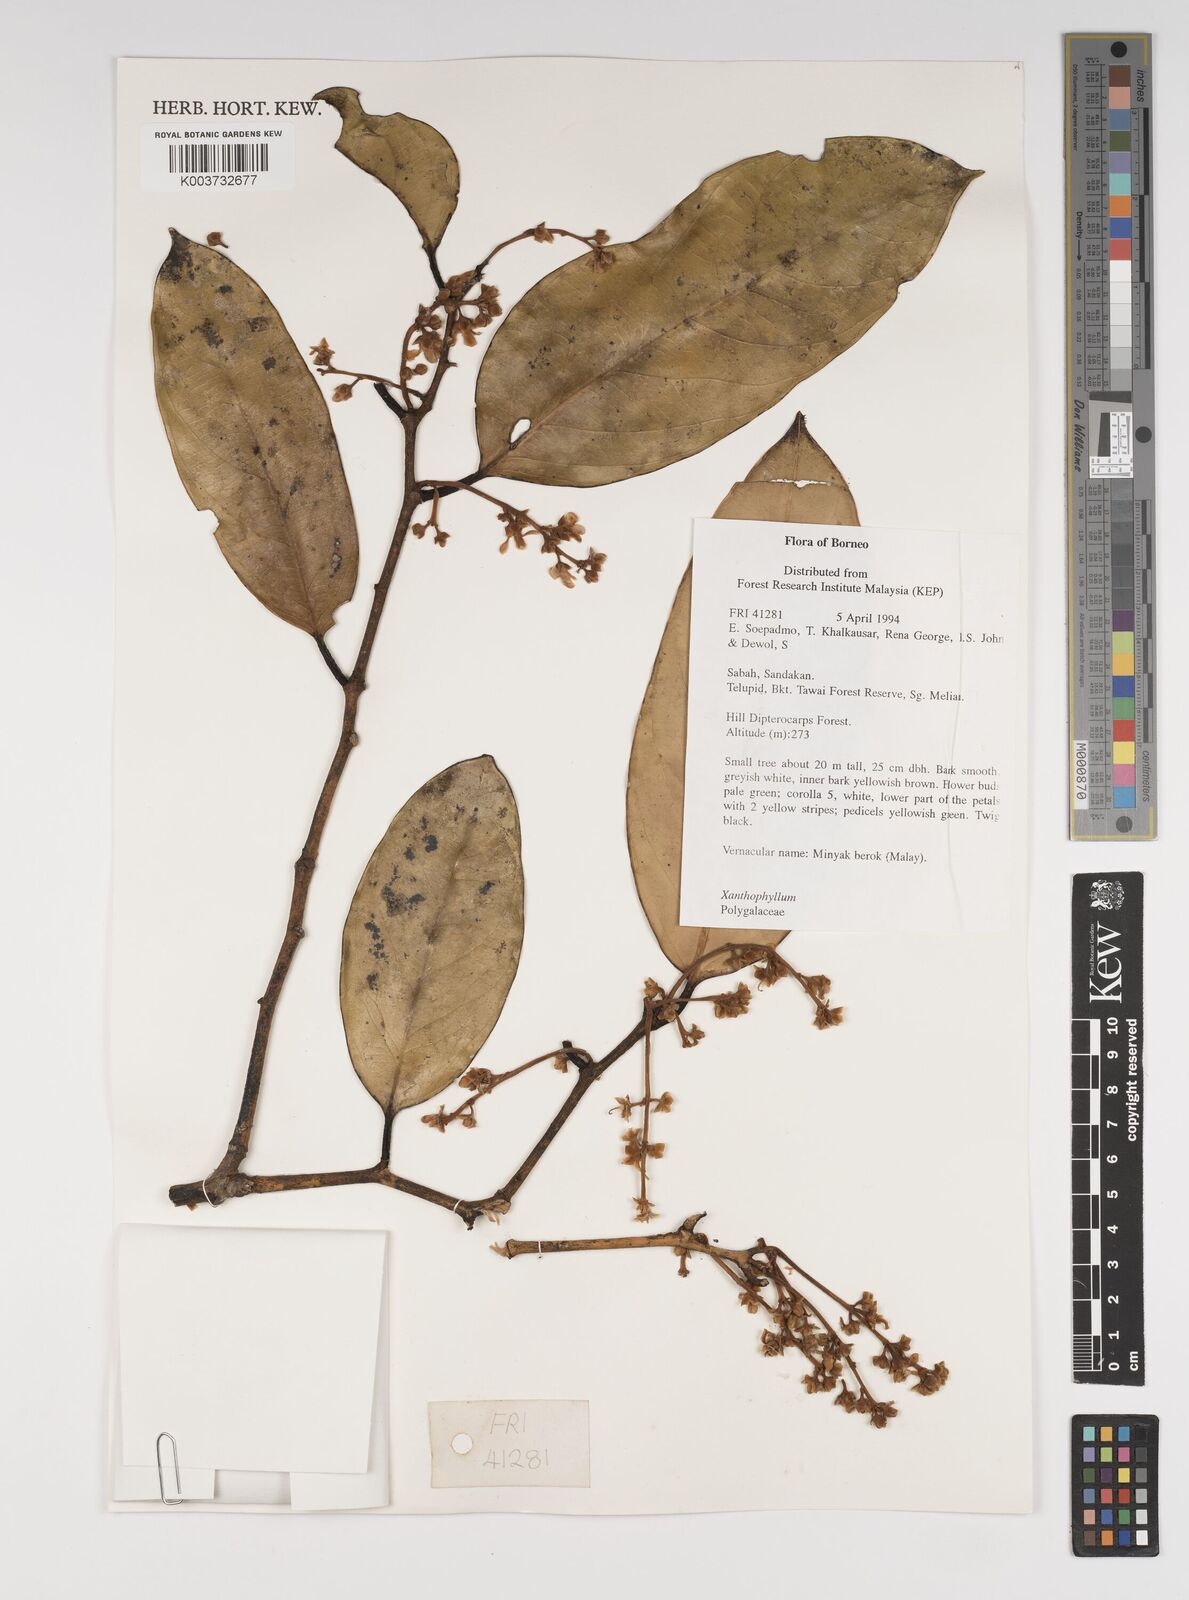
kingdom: Plantae
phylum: Tracheophyta
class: Magnoliopsida
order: Fabales
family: Polygalaceae
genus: Xanthophyllum
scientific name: Xanthophyllum
